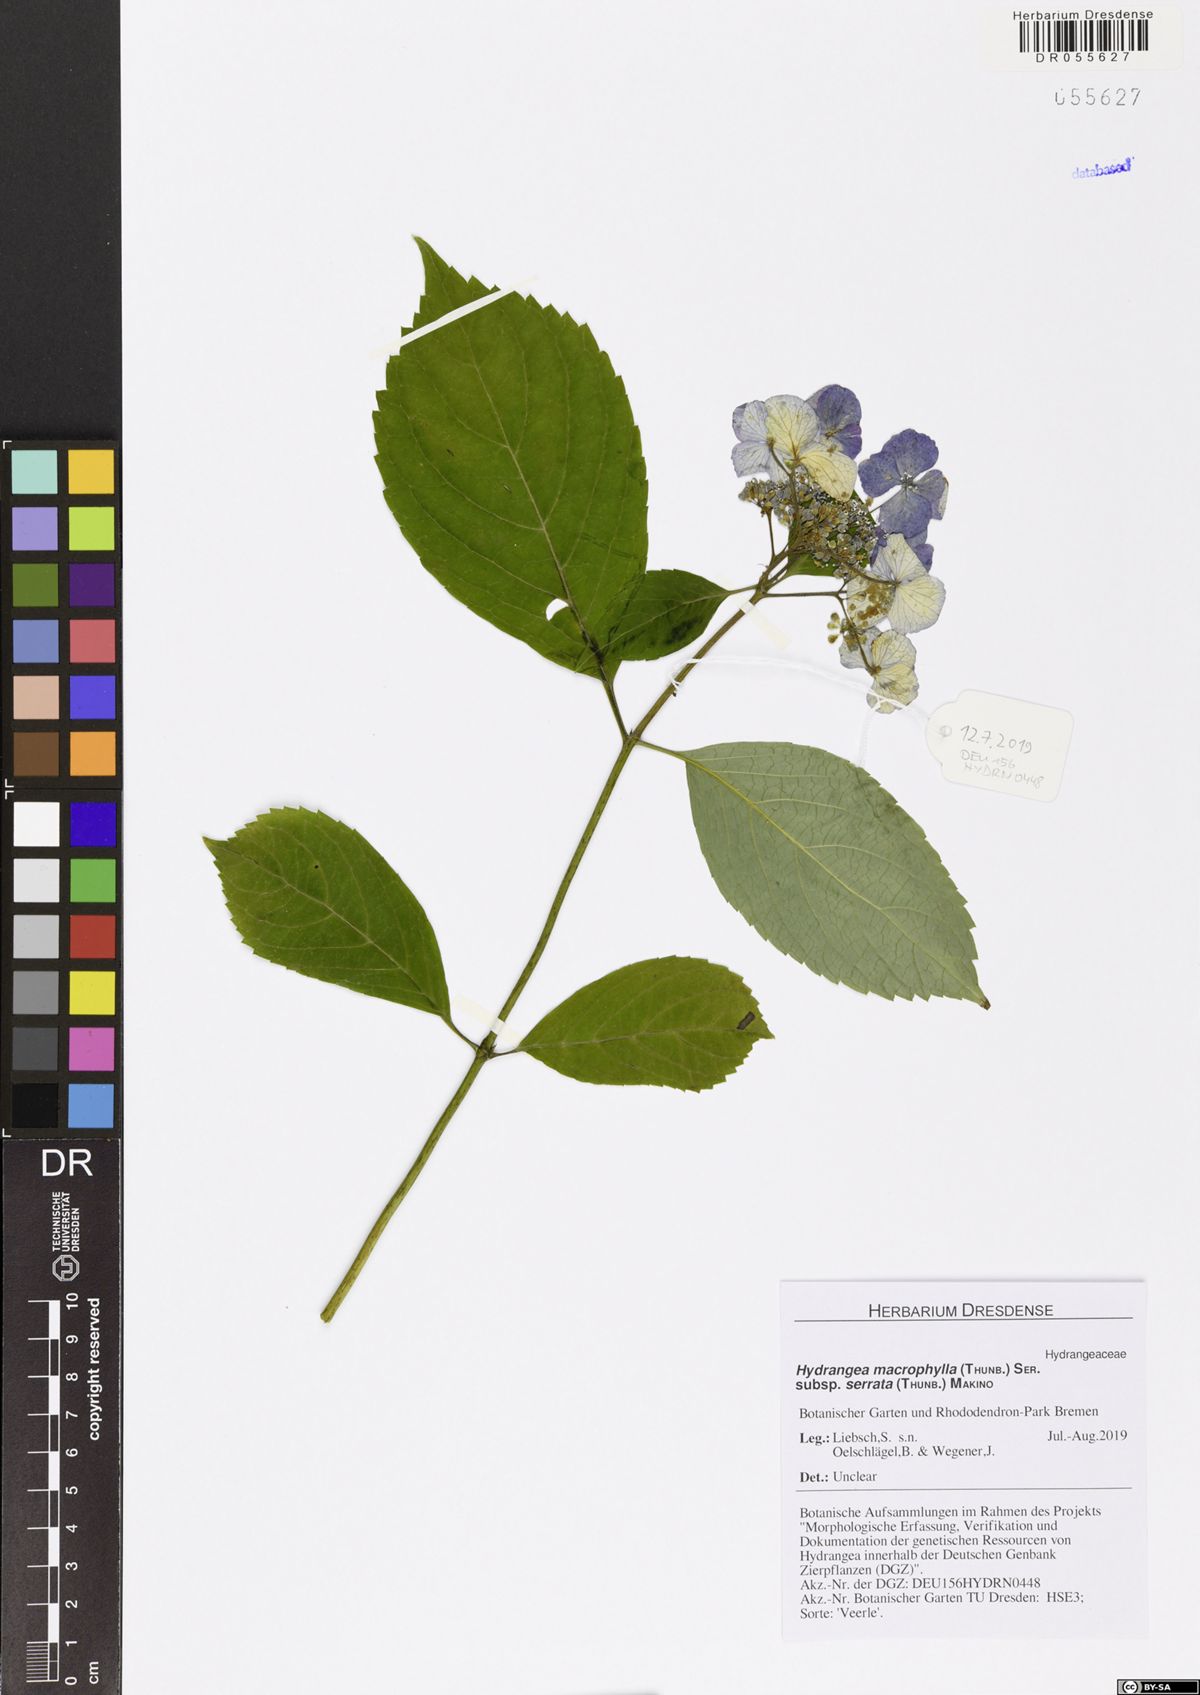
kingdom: Plantae
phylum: Tracheophyta
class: Magnoliopsida
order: Cornales
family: Hydrangeaceae
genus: Hydrangea
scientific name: Hydrangea serrata
